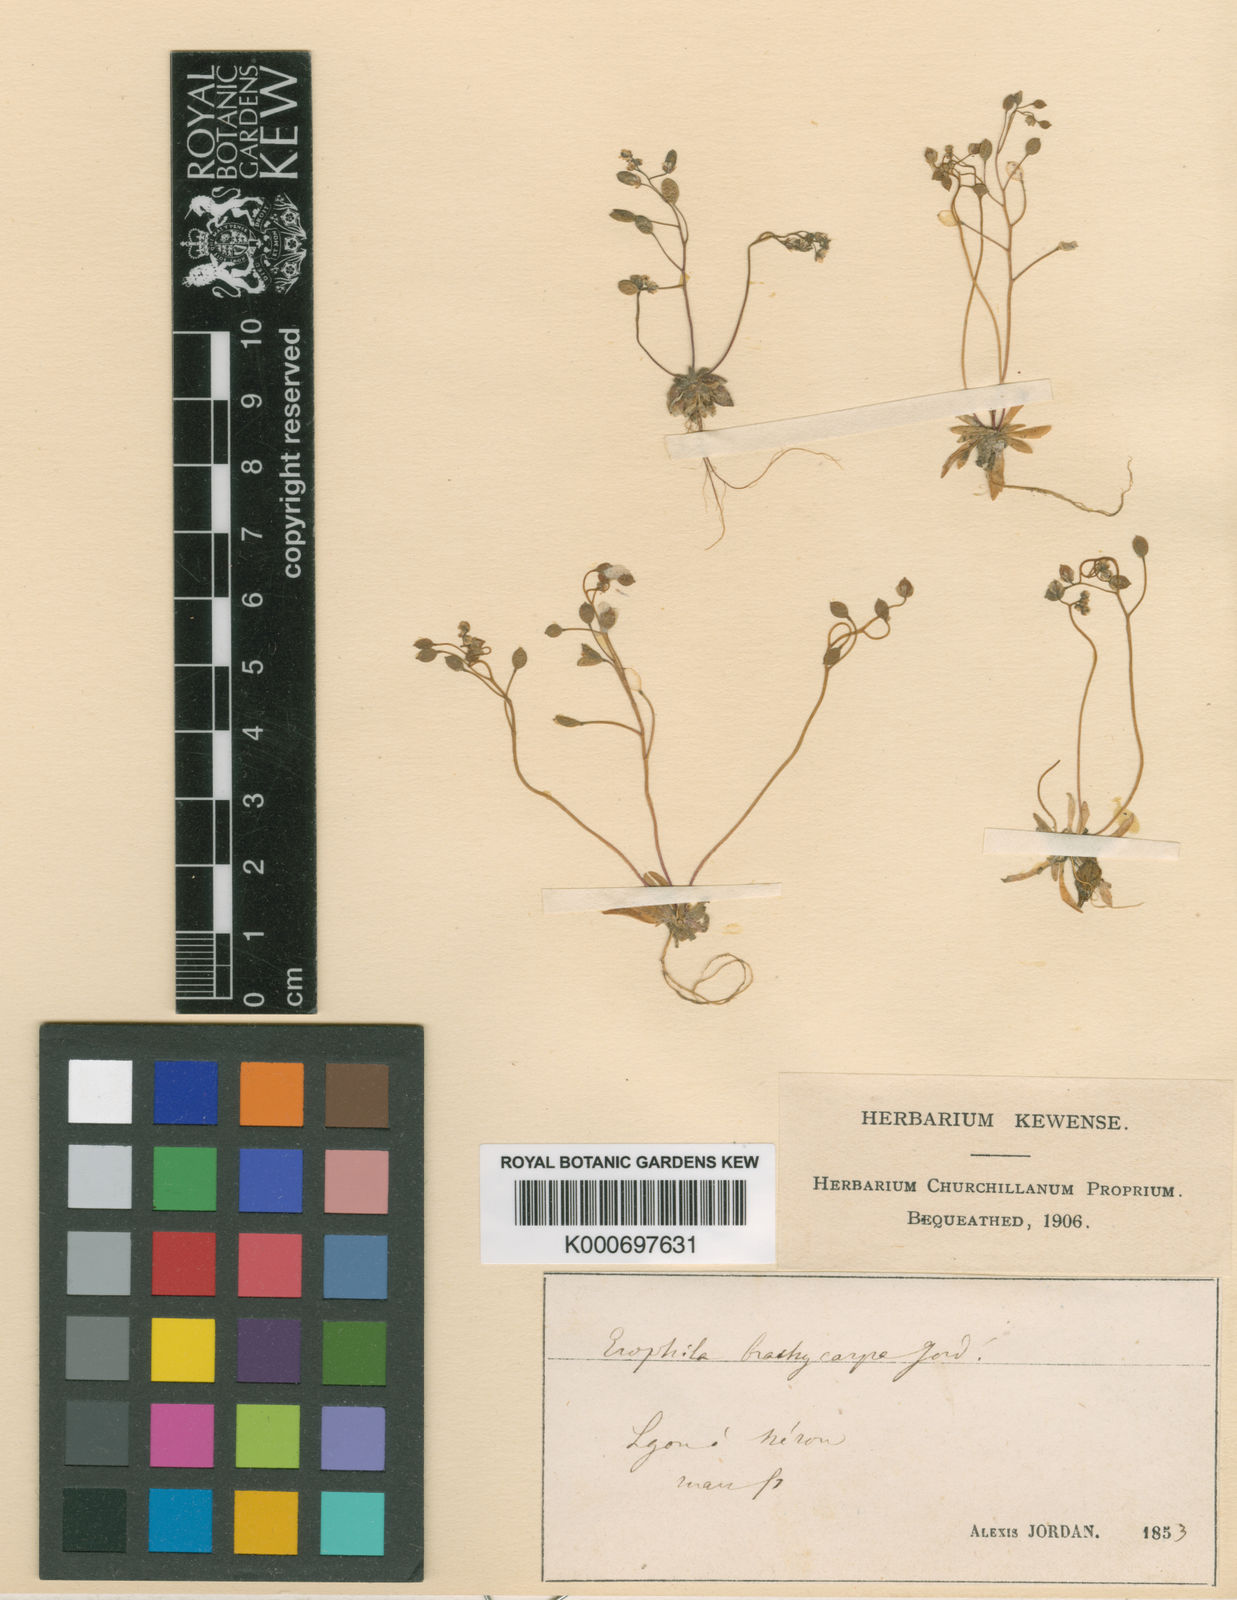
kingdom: Plantae
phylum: Tracheophyta
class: Magnoliopsida
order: Brassicales
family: Brassicaceae
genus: Draba
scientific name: Draba verna
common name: Spring draba
